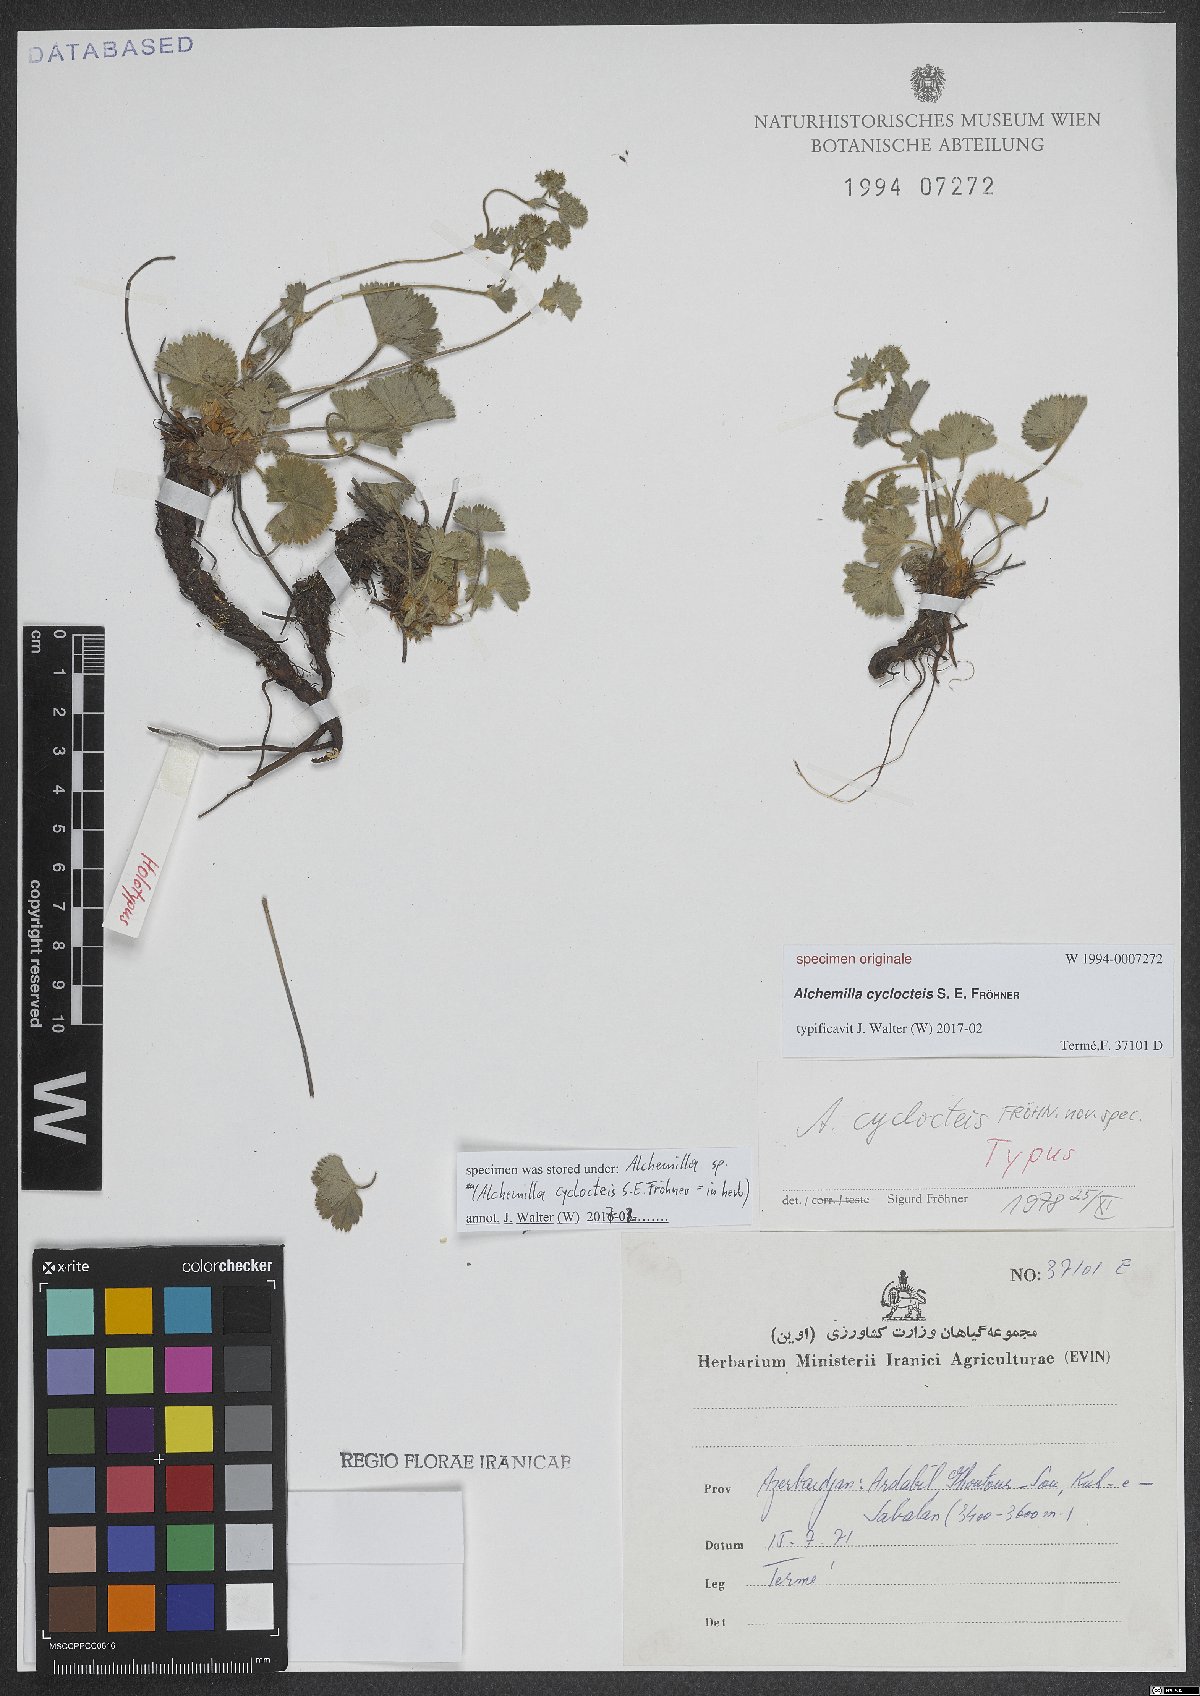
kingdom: Plantae
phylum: Tracheophyta
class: Magnoliopsida
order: Rosales
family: Rosaceae
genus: Alchemilla
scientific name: Alchemilla
